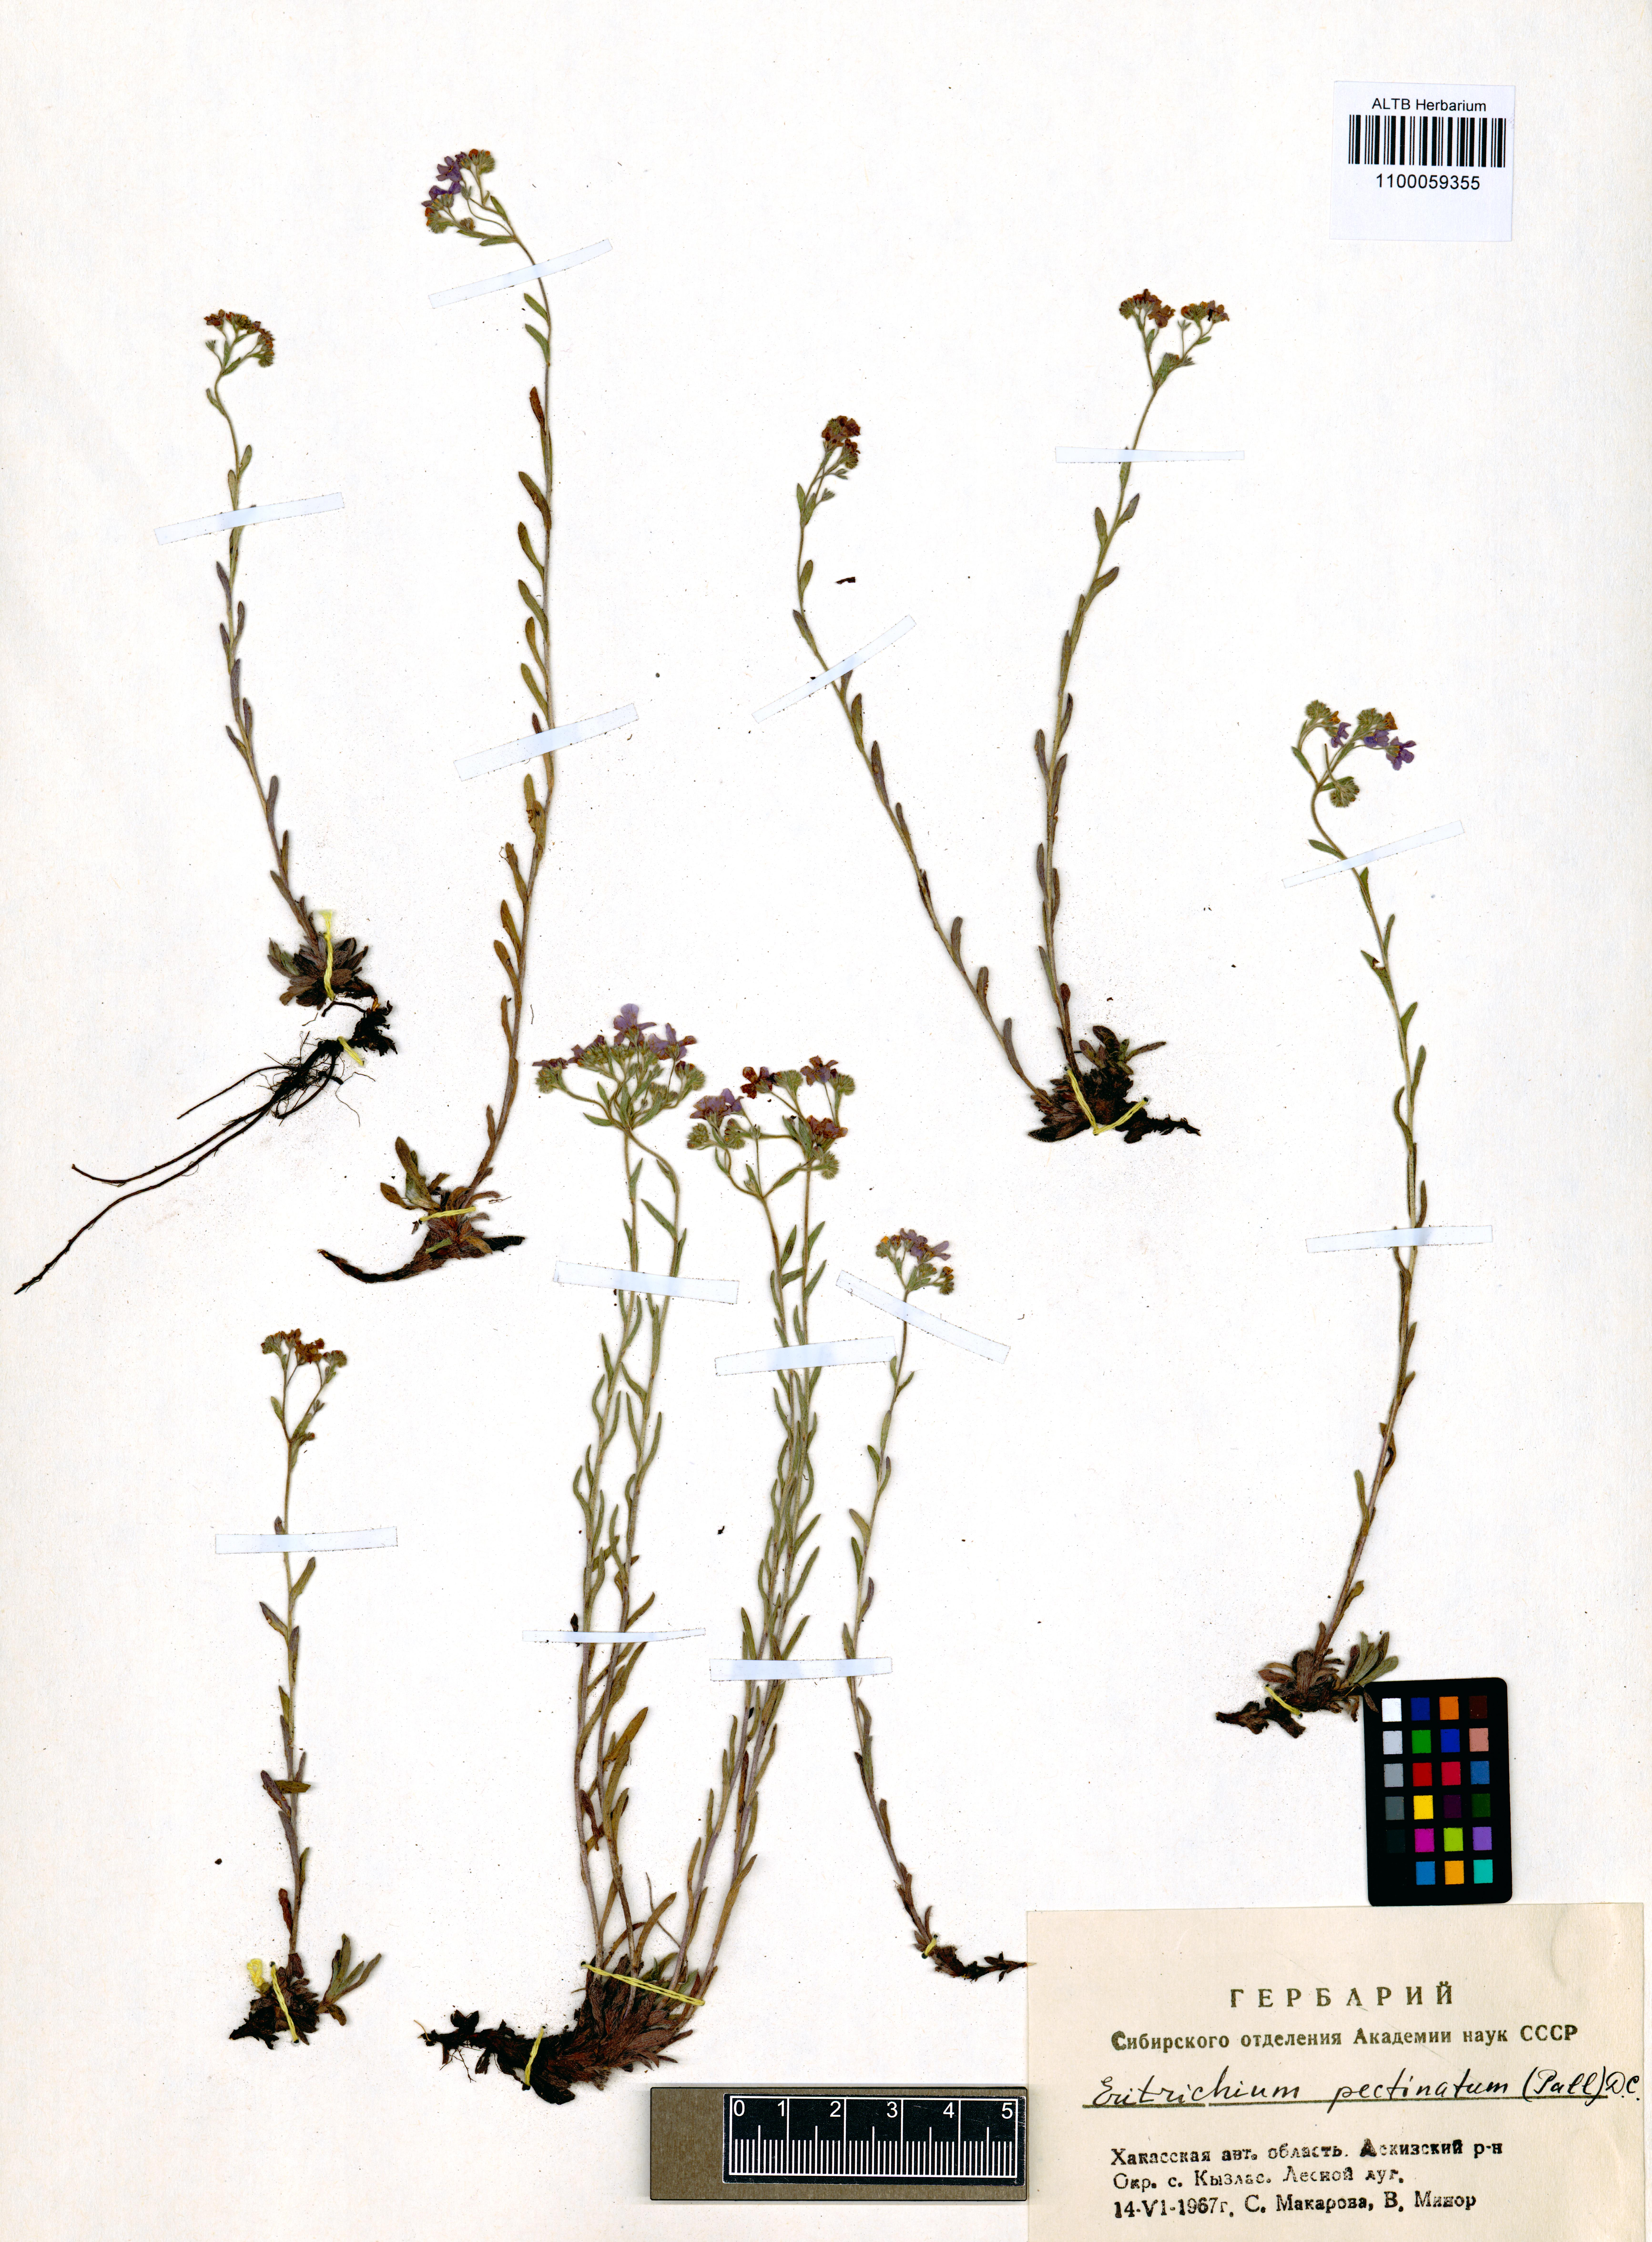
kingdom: Plantae
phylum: Tracheophyta
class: Magnoliopsida
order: Boraginales
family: Boraginaceae
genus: Eritrichium
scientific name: Eritrichium pectinatum
